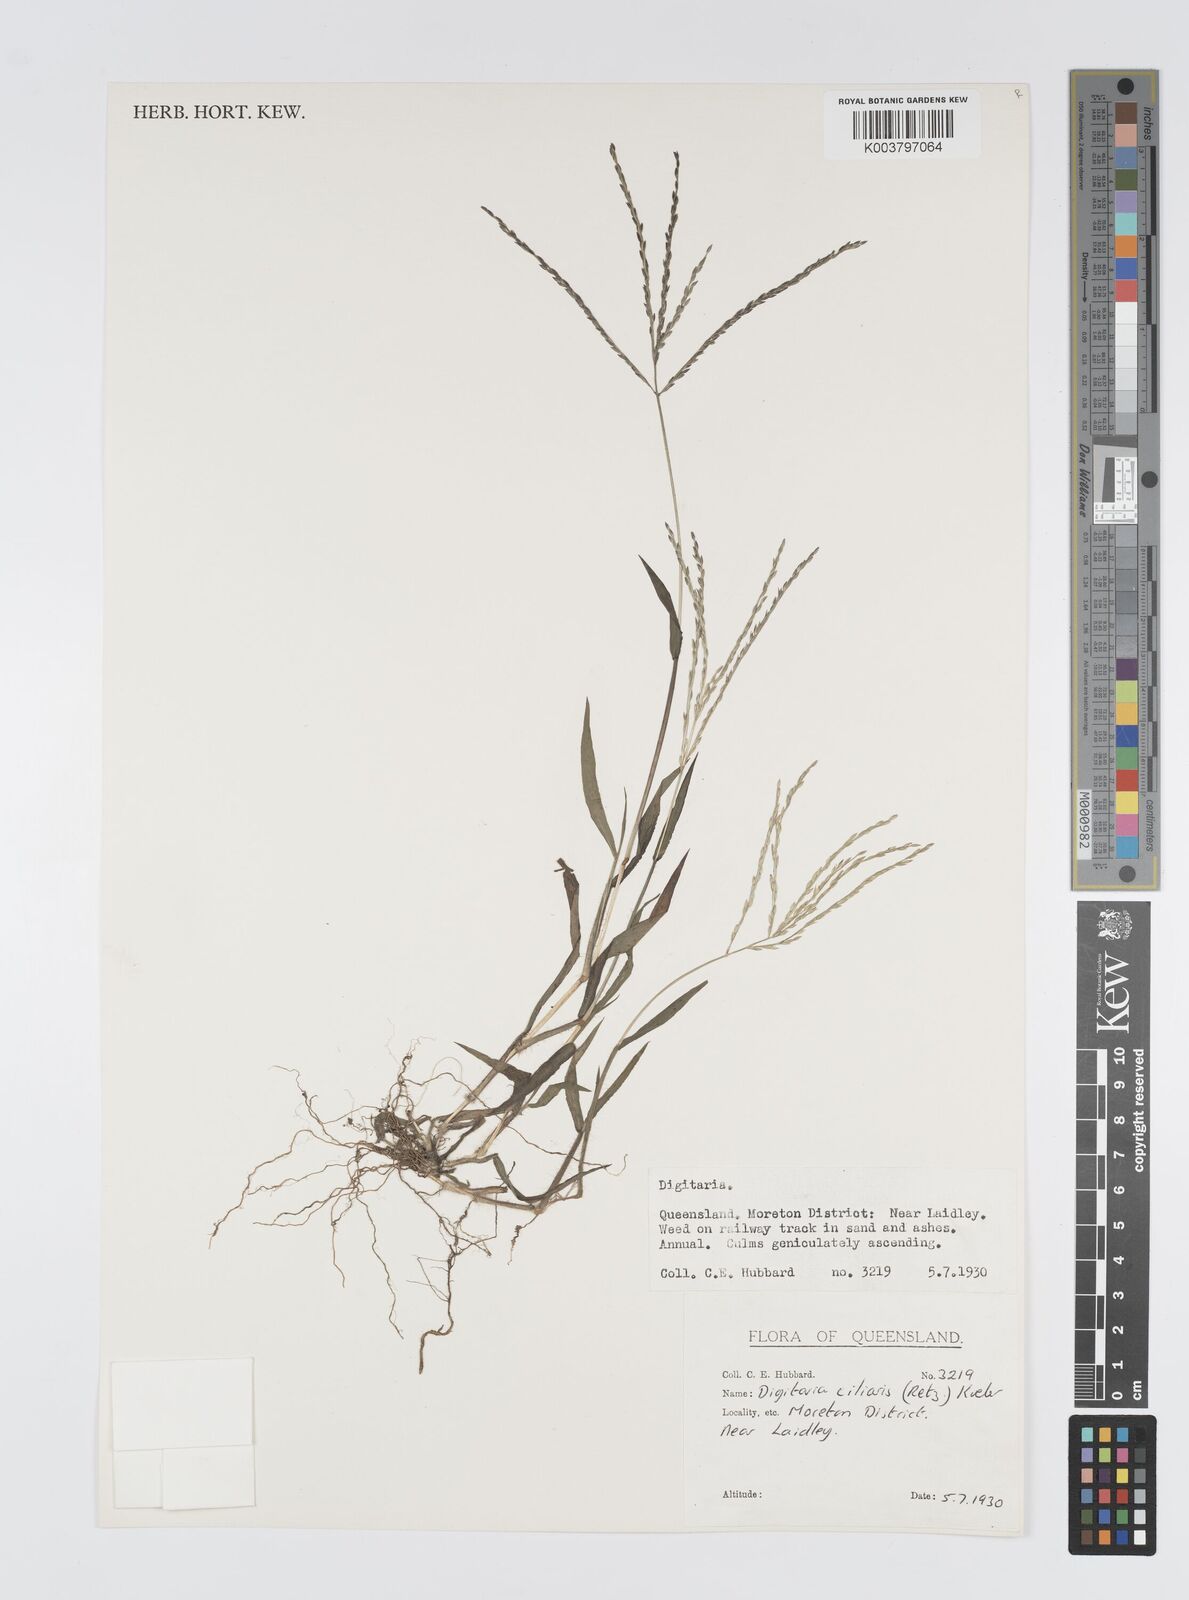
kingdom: Plantae
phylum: Tracheophyta
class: Liliopsida
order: Poales
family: Poaceae
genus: Digitaria
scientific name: Digitaria ciliaris
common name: Tropical finger-grass
